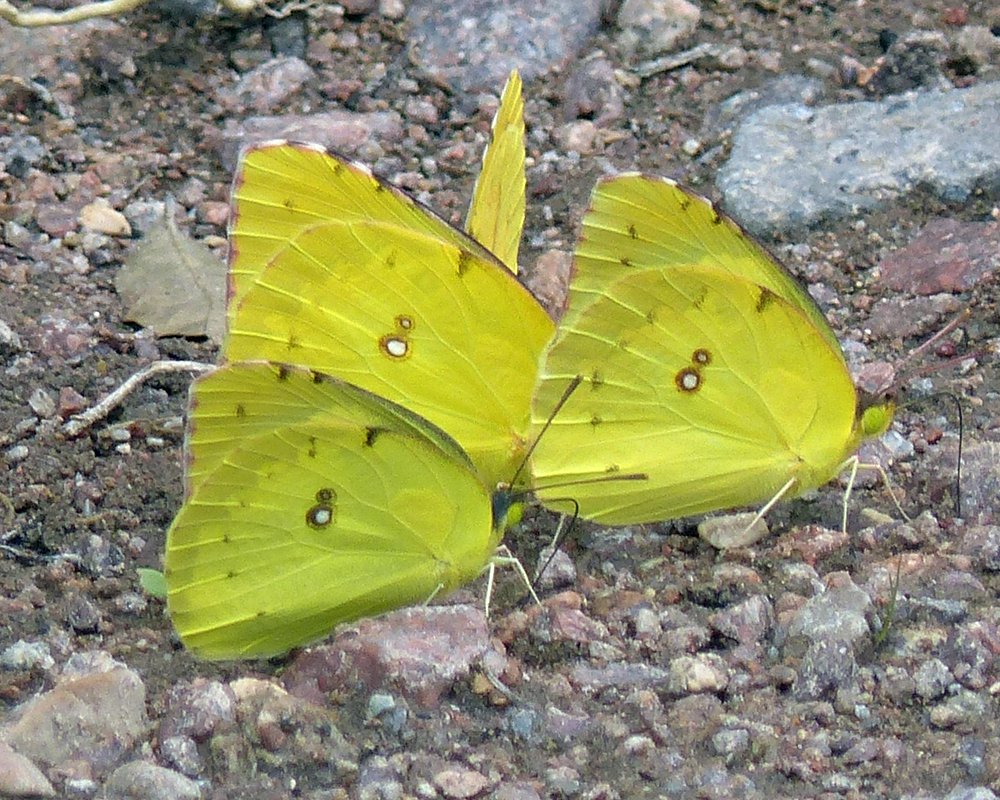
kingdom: Animalia
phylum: Arthropoda
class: Insecta
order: Lepidoptera
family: Pieridae
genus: Zerene
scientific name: Zerene cesonia
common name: Southern Dogface
